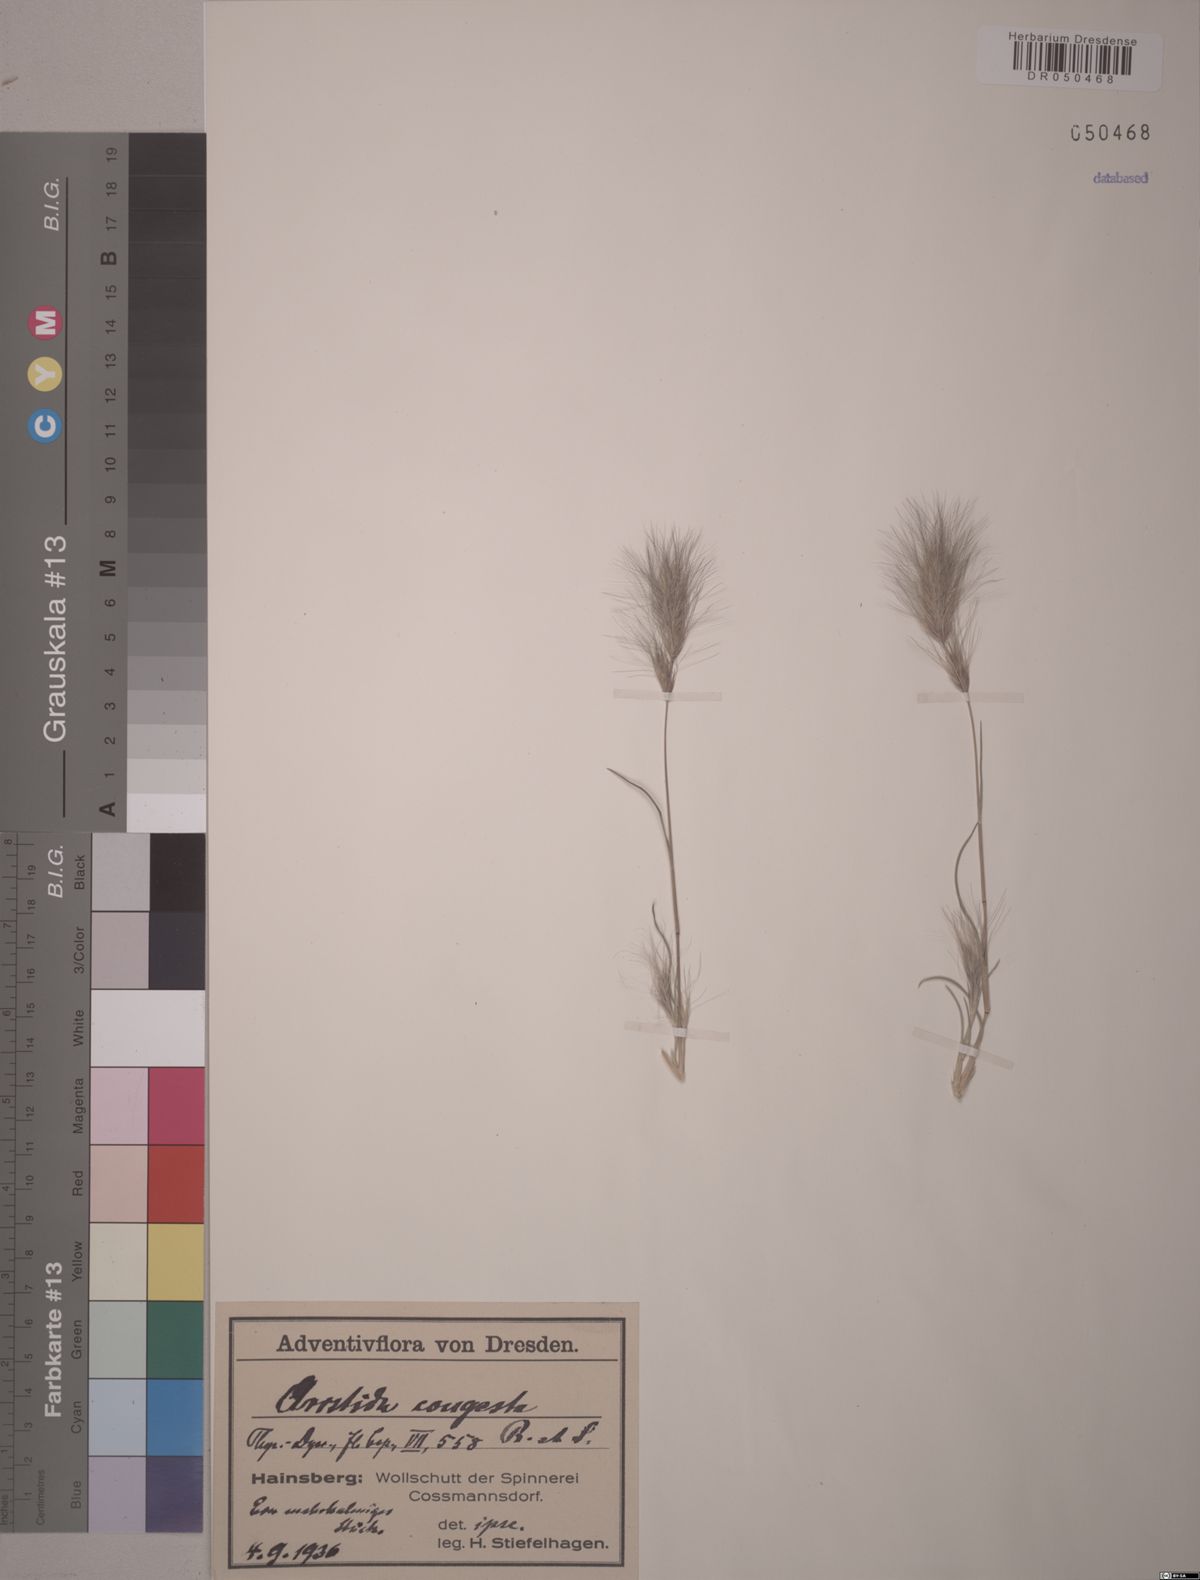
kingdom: Plantae
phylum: Tracheophyta
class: Liliopsida
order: Poales
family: Poaceae
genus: Aristida
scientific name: Aristida congesta
